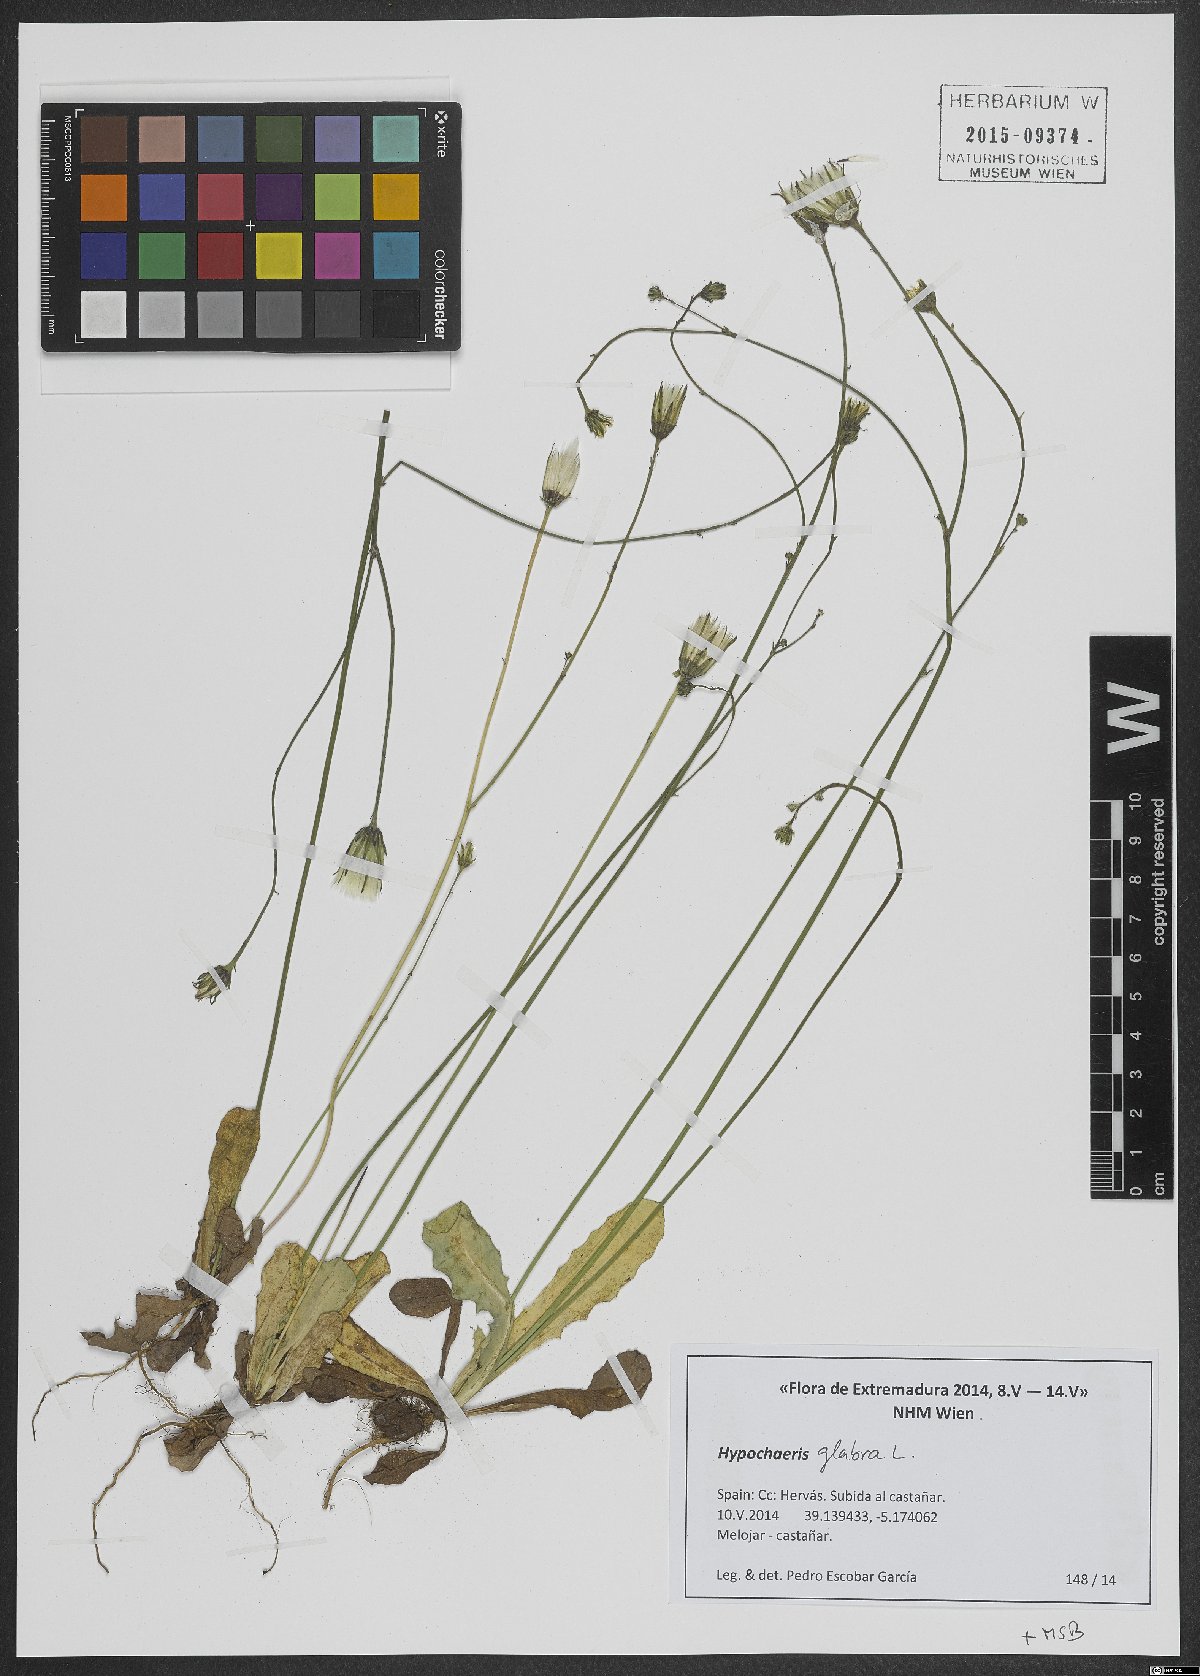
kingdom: Plantae
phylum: Tracheophyta
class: Magnoliopsida
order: Asterales
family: Asteraceae
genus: Hypochaeris
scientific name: Hypochaeris glabra
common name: Smooth catsear
